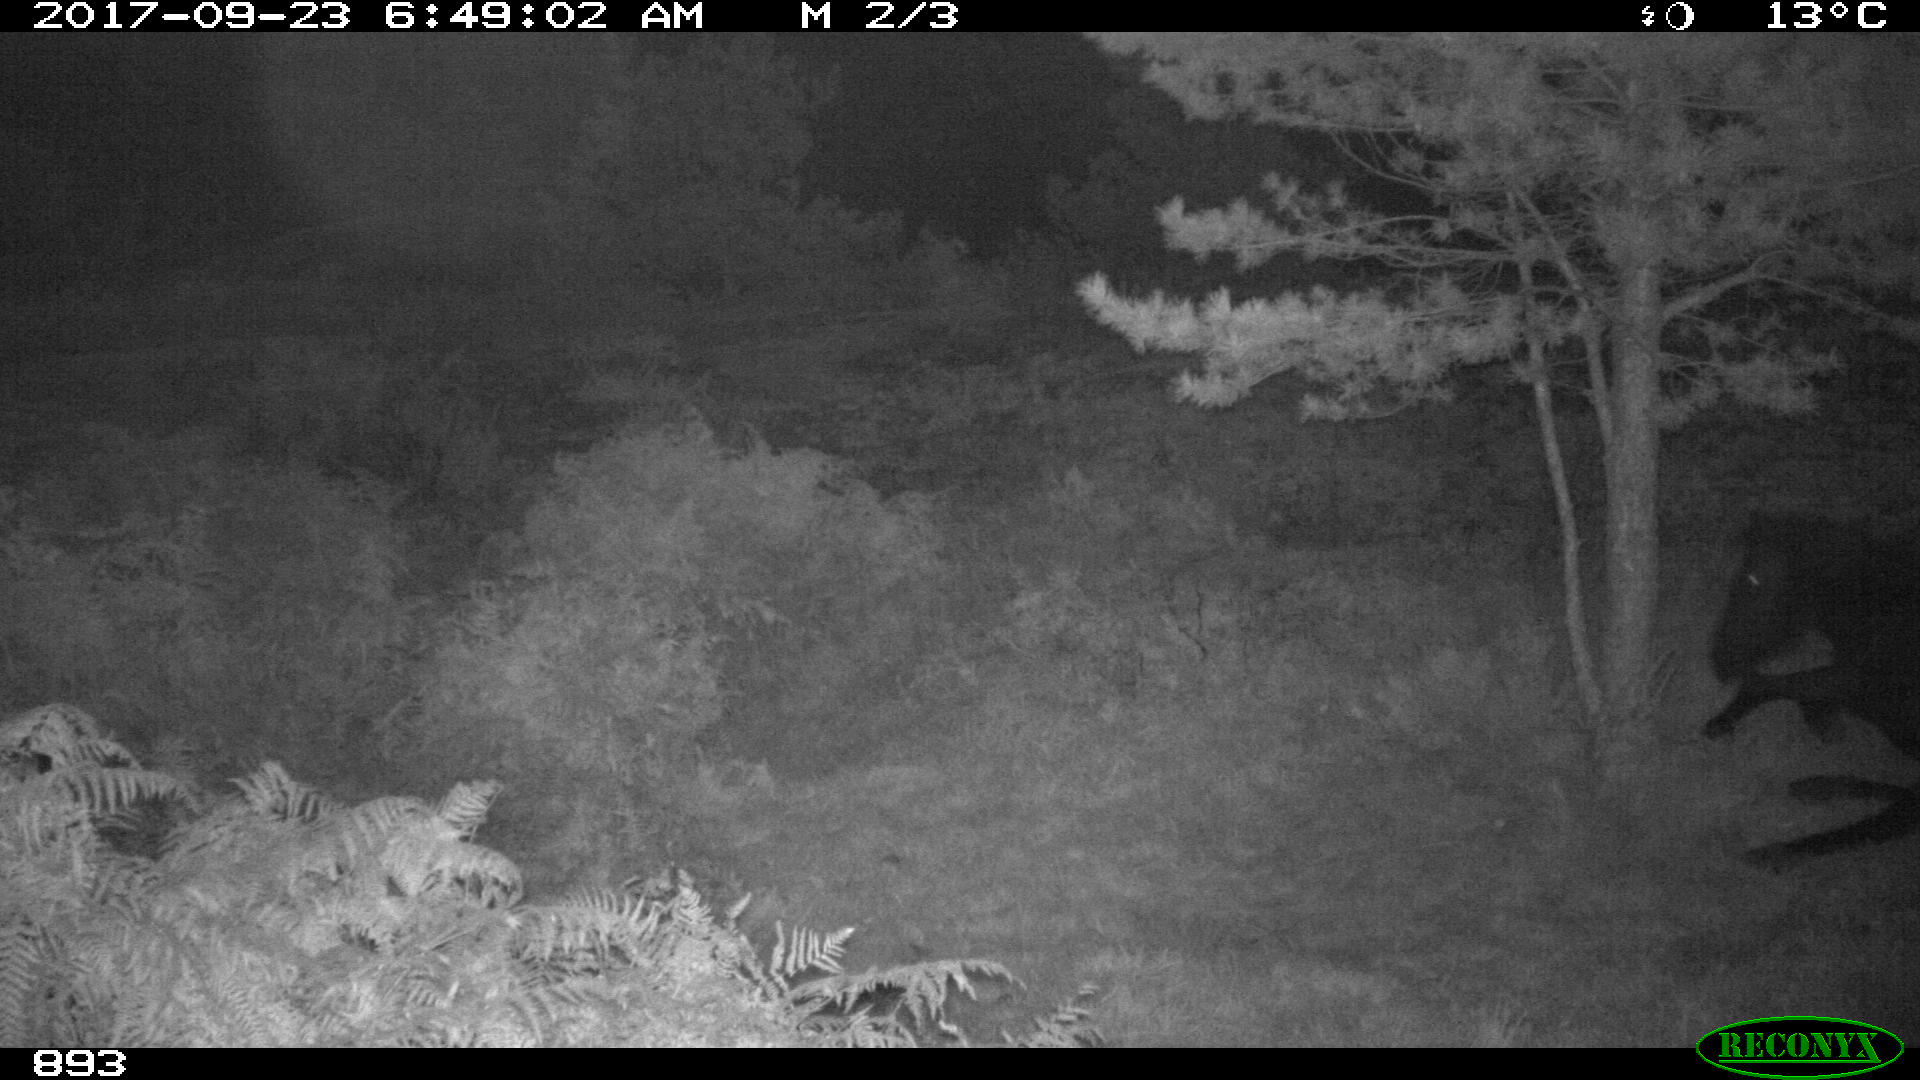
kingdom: Animalia
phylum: Chordata
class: Mammalia
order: Perissodactyla
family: Equidae
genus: Equus
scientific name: Equus caballus
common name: Horse
